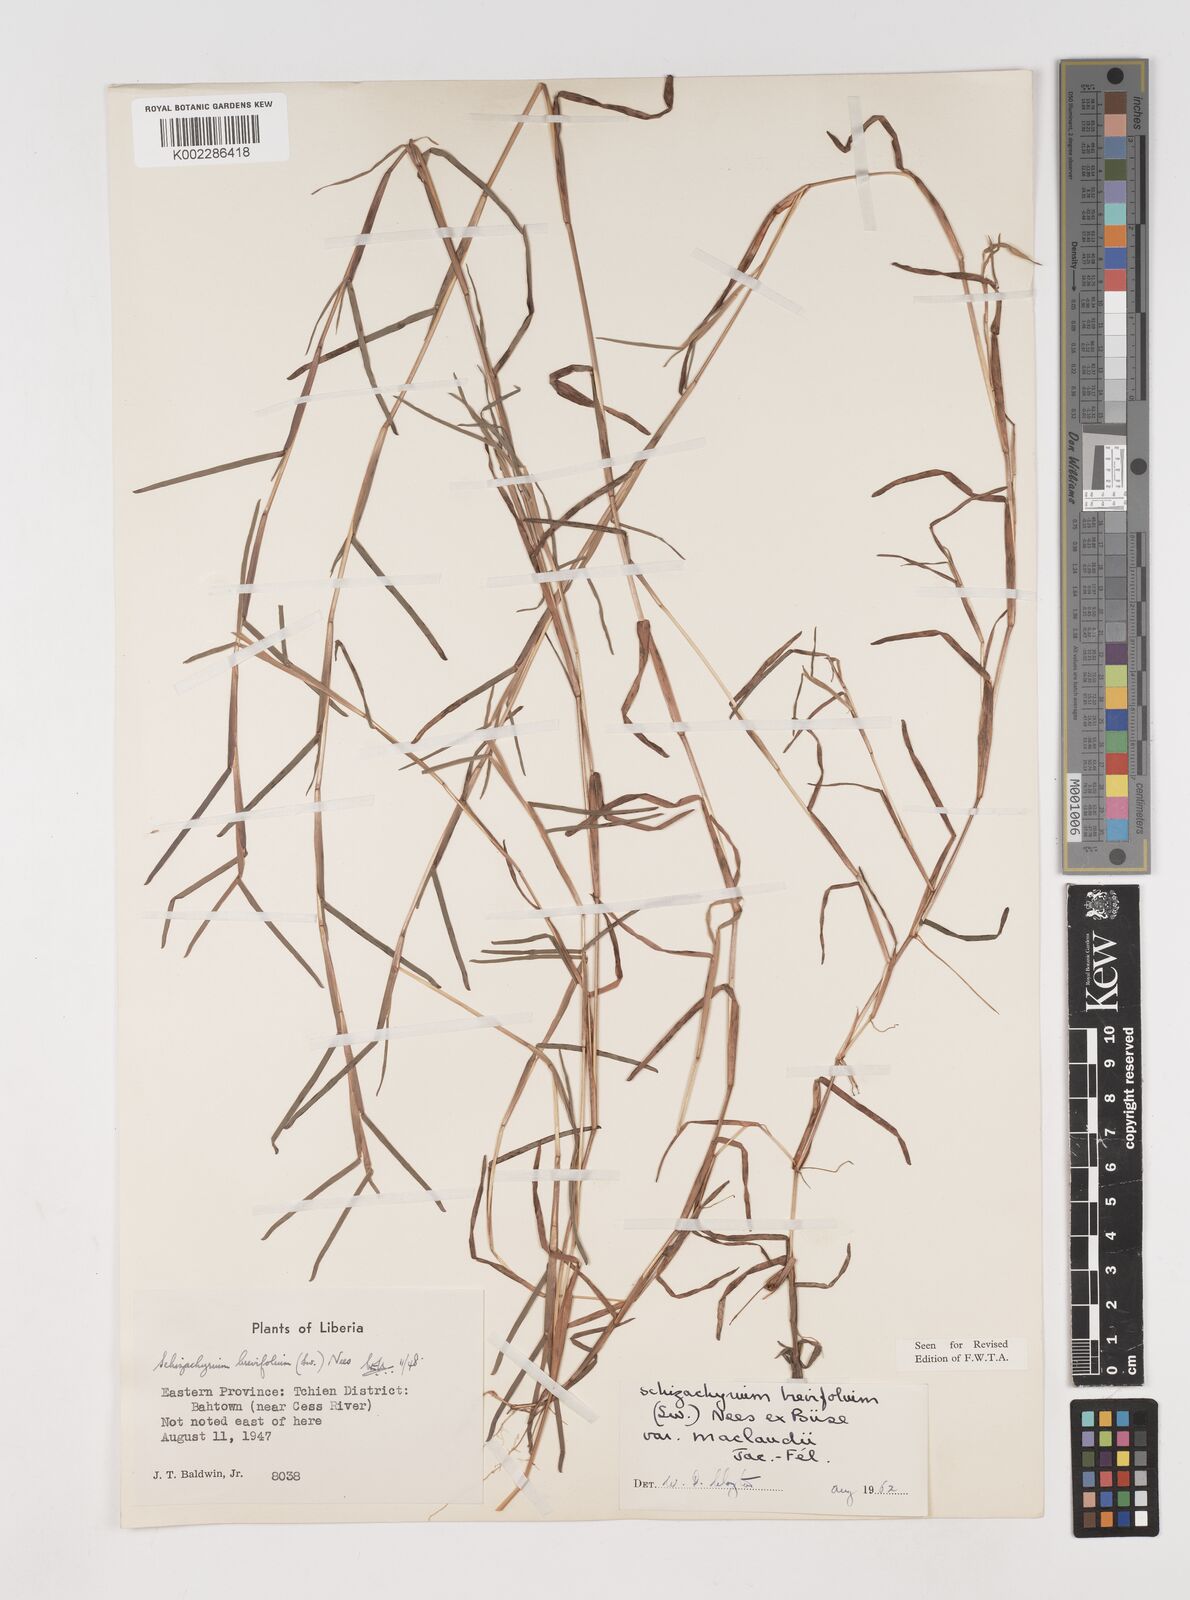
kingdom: Plantae
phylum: Tracheophyta
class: Liliopsida
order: Poales
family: Poaceae
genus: Schizachyrium
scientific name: Schizachyrium maclaudii
